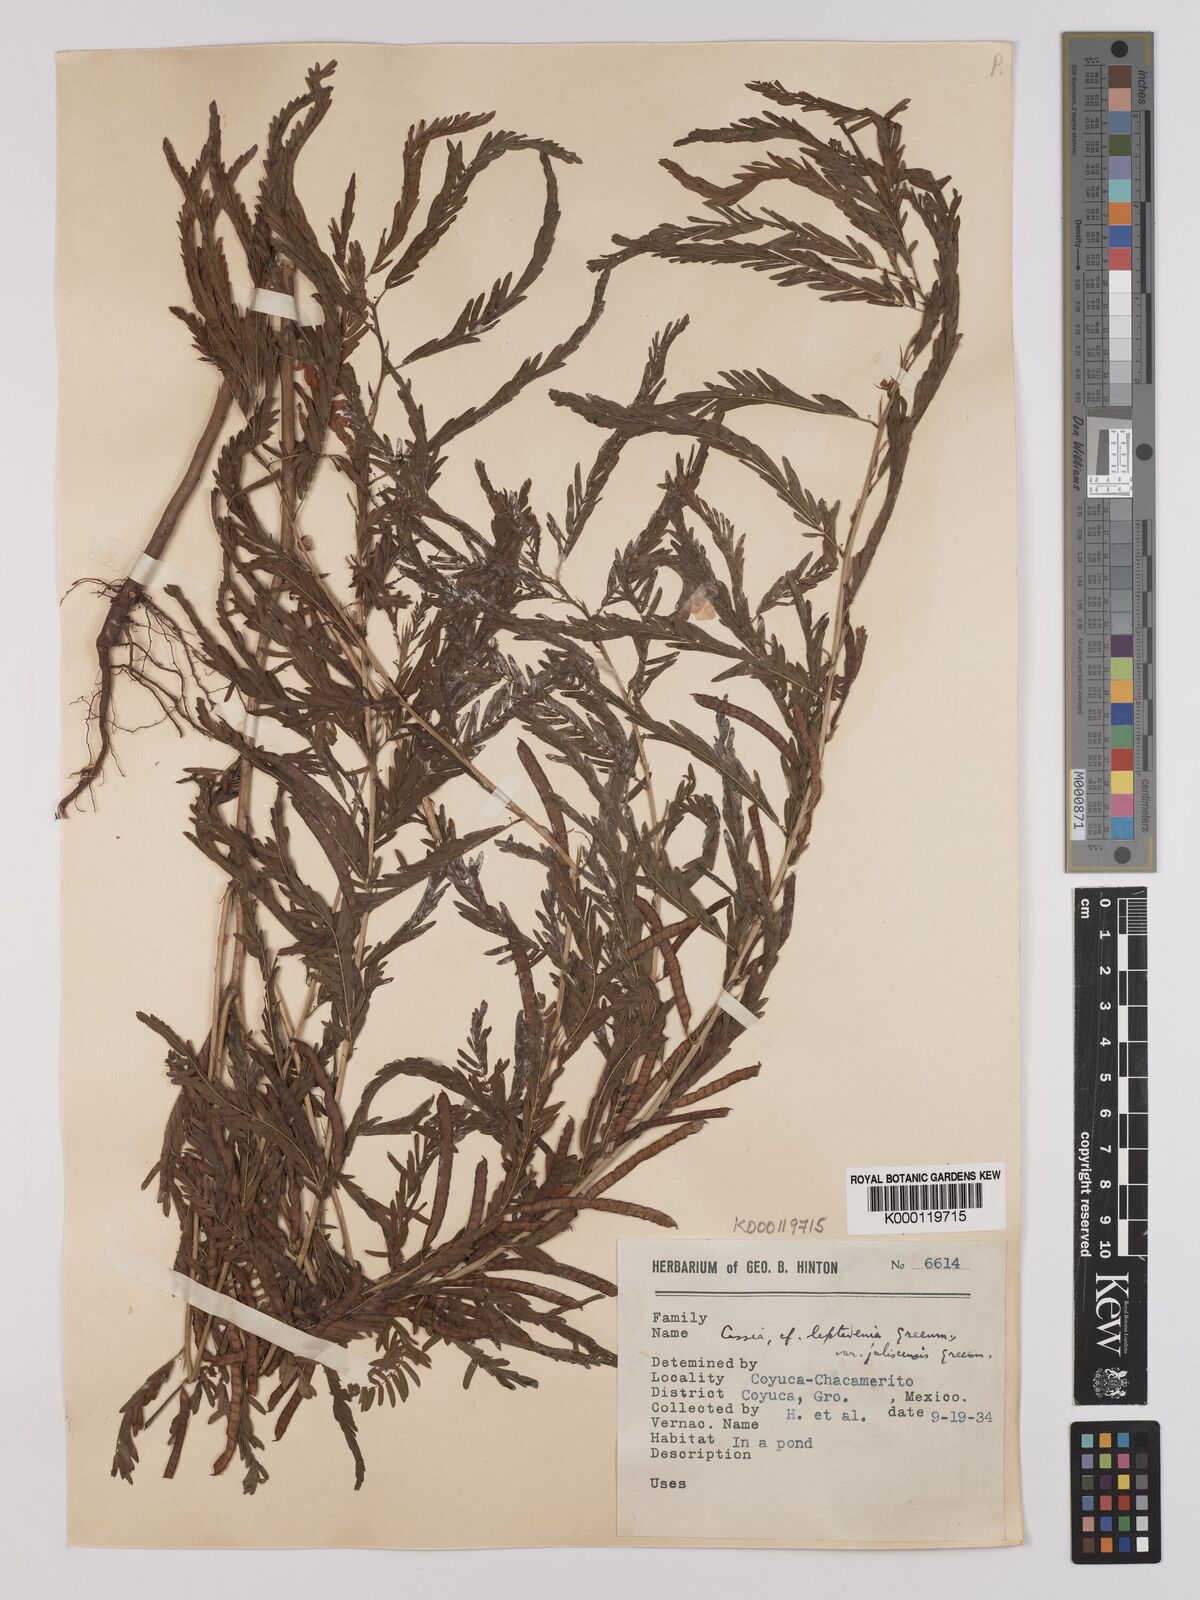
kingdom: Plantae
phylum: Tracheophyta
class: Magnoliopsida
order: Fabales
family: Fabaceae
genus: Chamaecrista
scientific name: Chamaecrista nictitans
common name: Sensitive cassia
